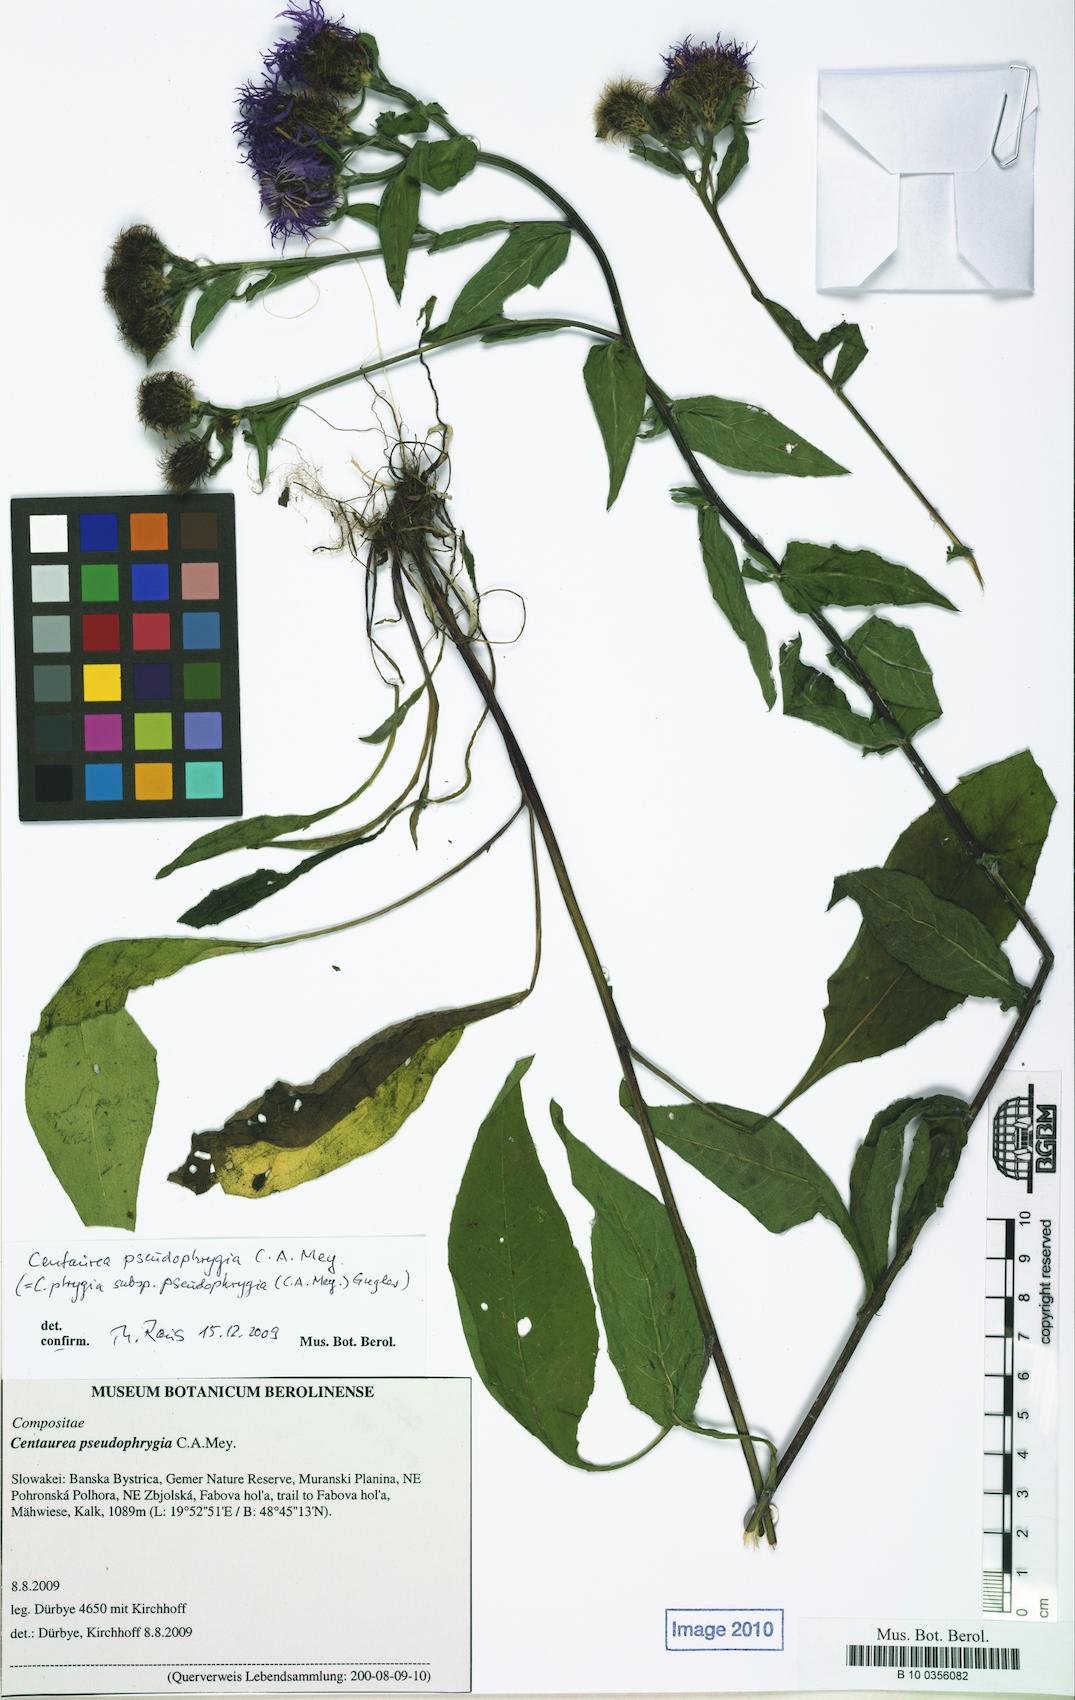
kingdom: Plantae
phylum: Tracheophyta
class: Magnoliopsida
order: Asterales
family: Asteraceae
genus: Centaurea
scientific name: Centaurea pseudophrygia
